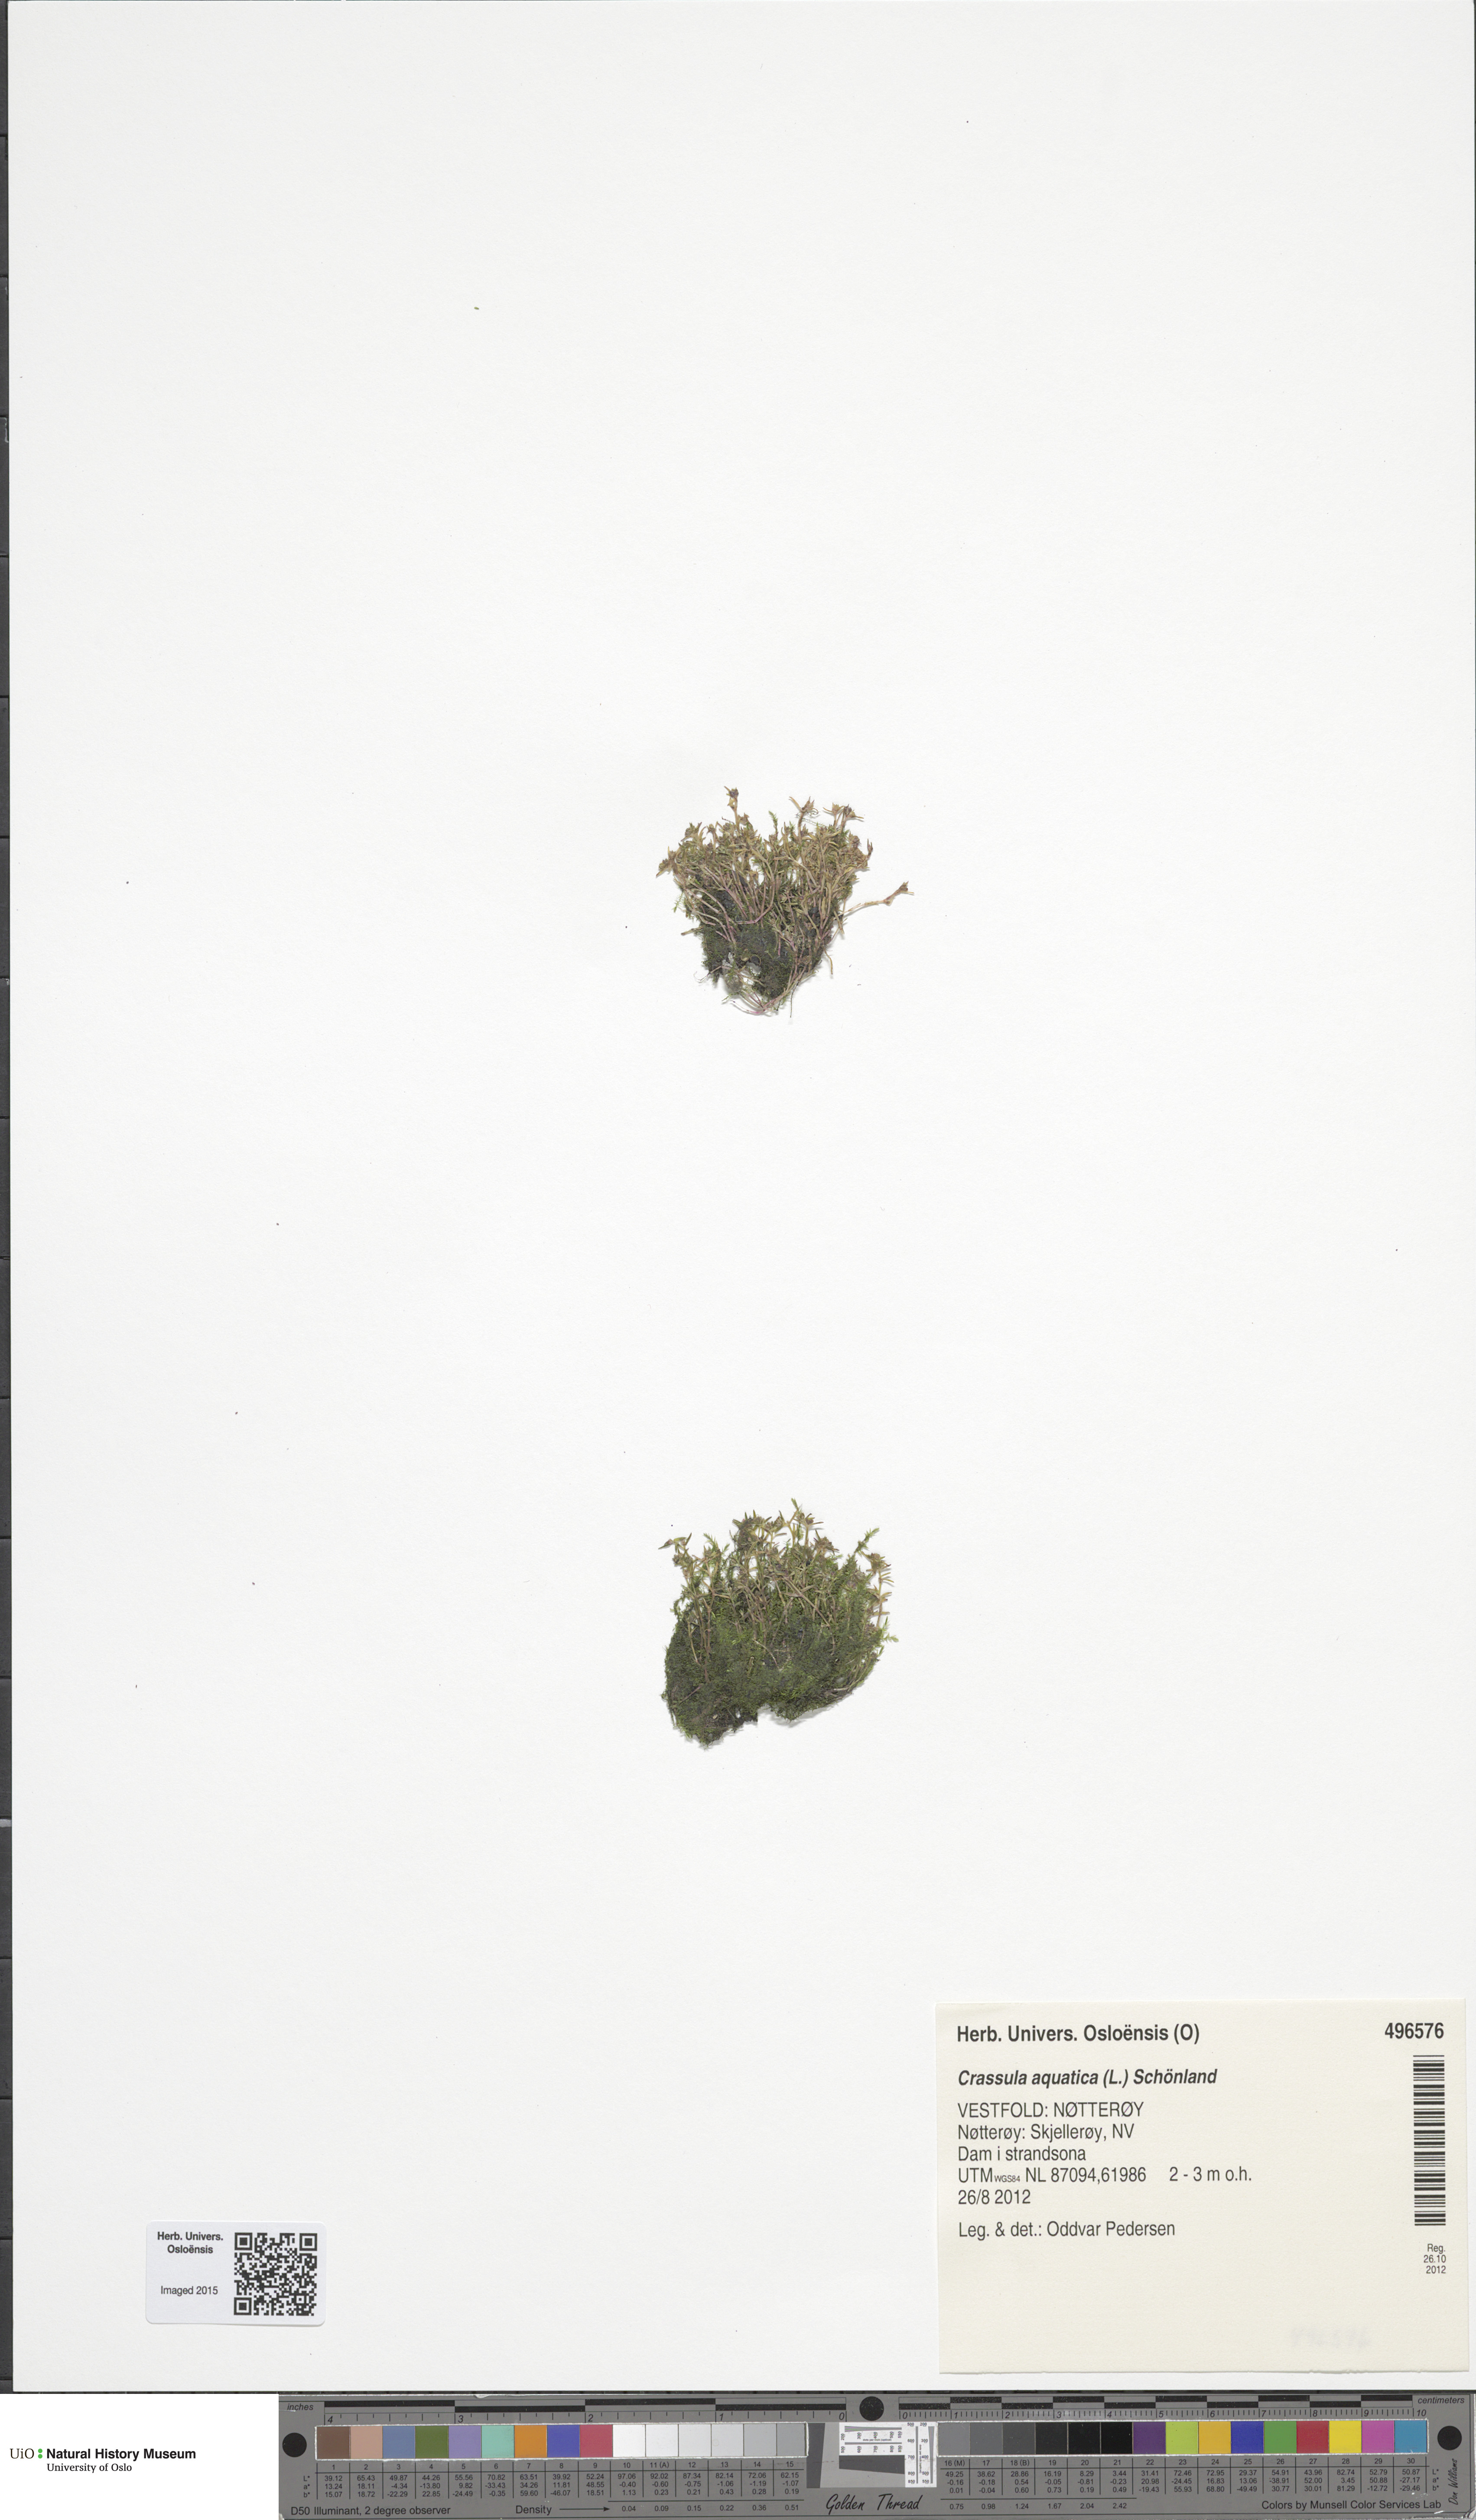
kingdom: Plantae
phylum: Tracheophyta
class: Magnoliopsida
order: Saxifragales
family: Crassulaceae
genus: Crassula
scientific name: Crassula aquatica
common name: Pigmyweed
